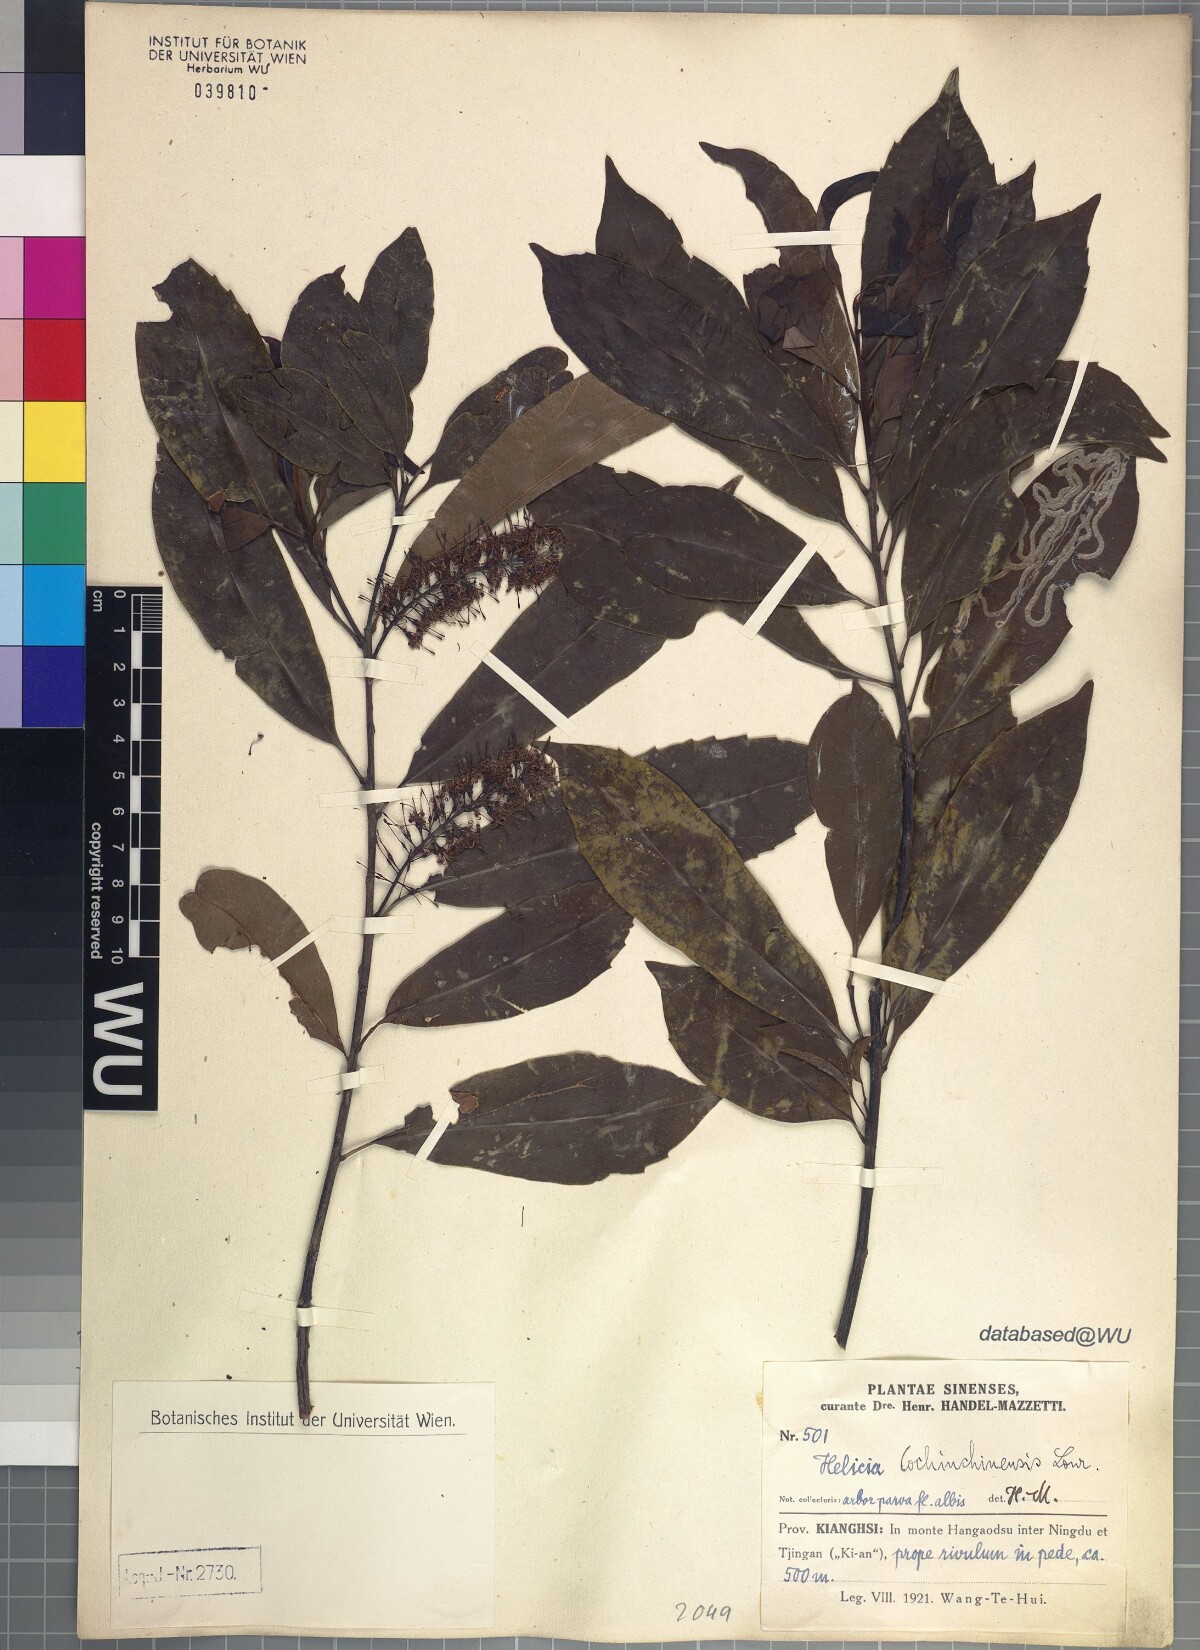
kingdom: Plantae
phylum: Tracheophyta
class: Magnoliopsida
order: Proteales
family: Proteaceae
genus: Helicia
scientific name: Helicia cochinchinensis
